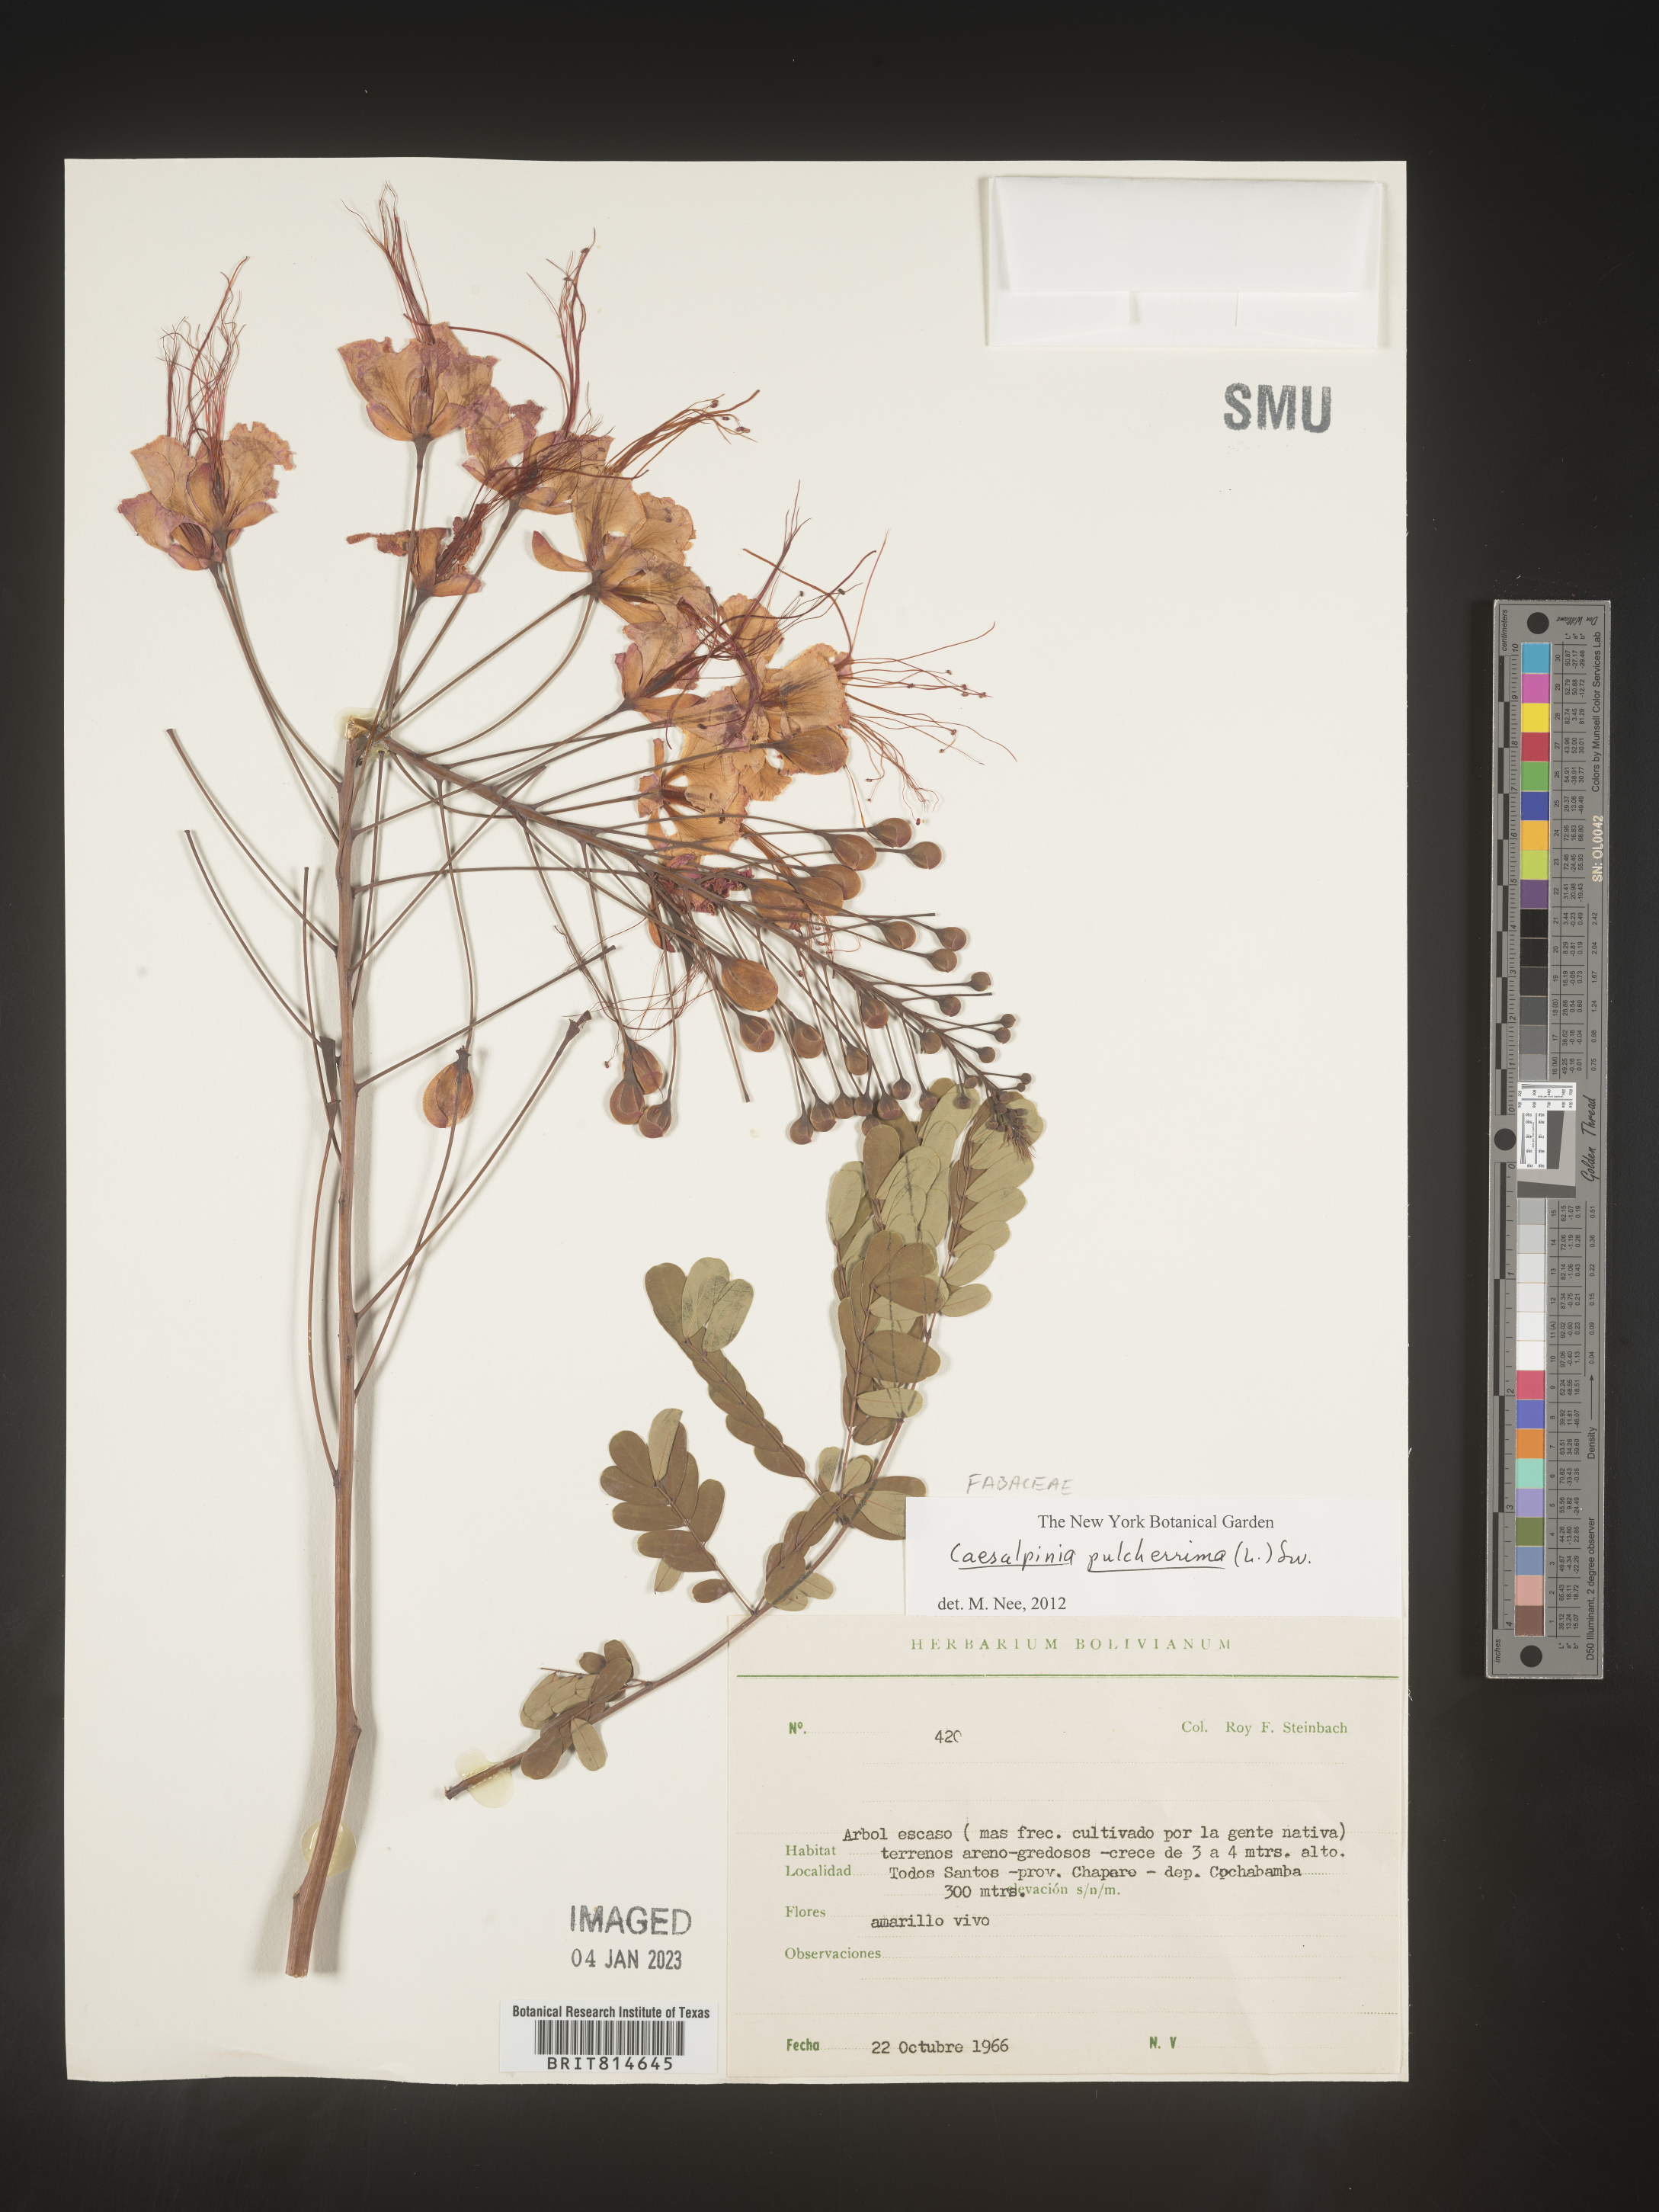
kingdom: Plantae
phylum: Tracheophyta
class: Magnoliopsida
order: Fabales
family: Fabaceae
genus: Caesalpinia
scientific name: Caesalpinia
